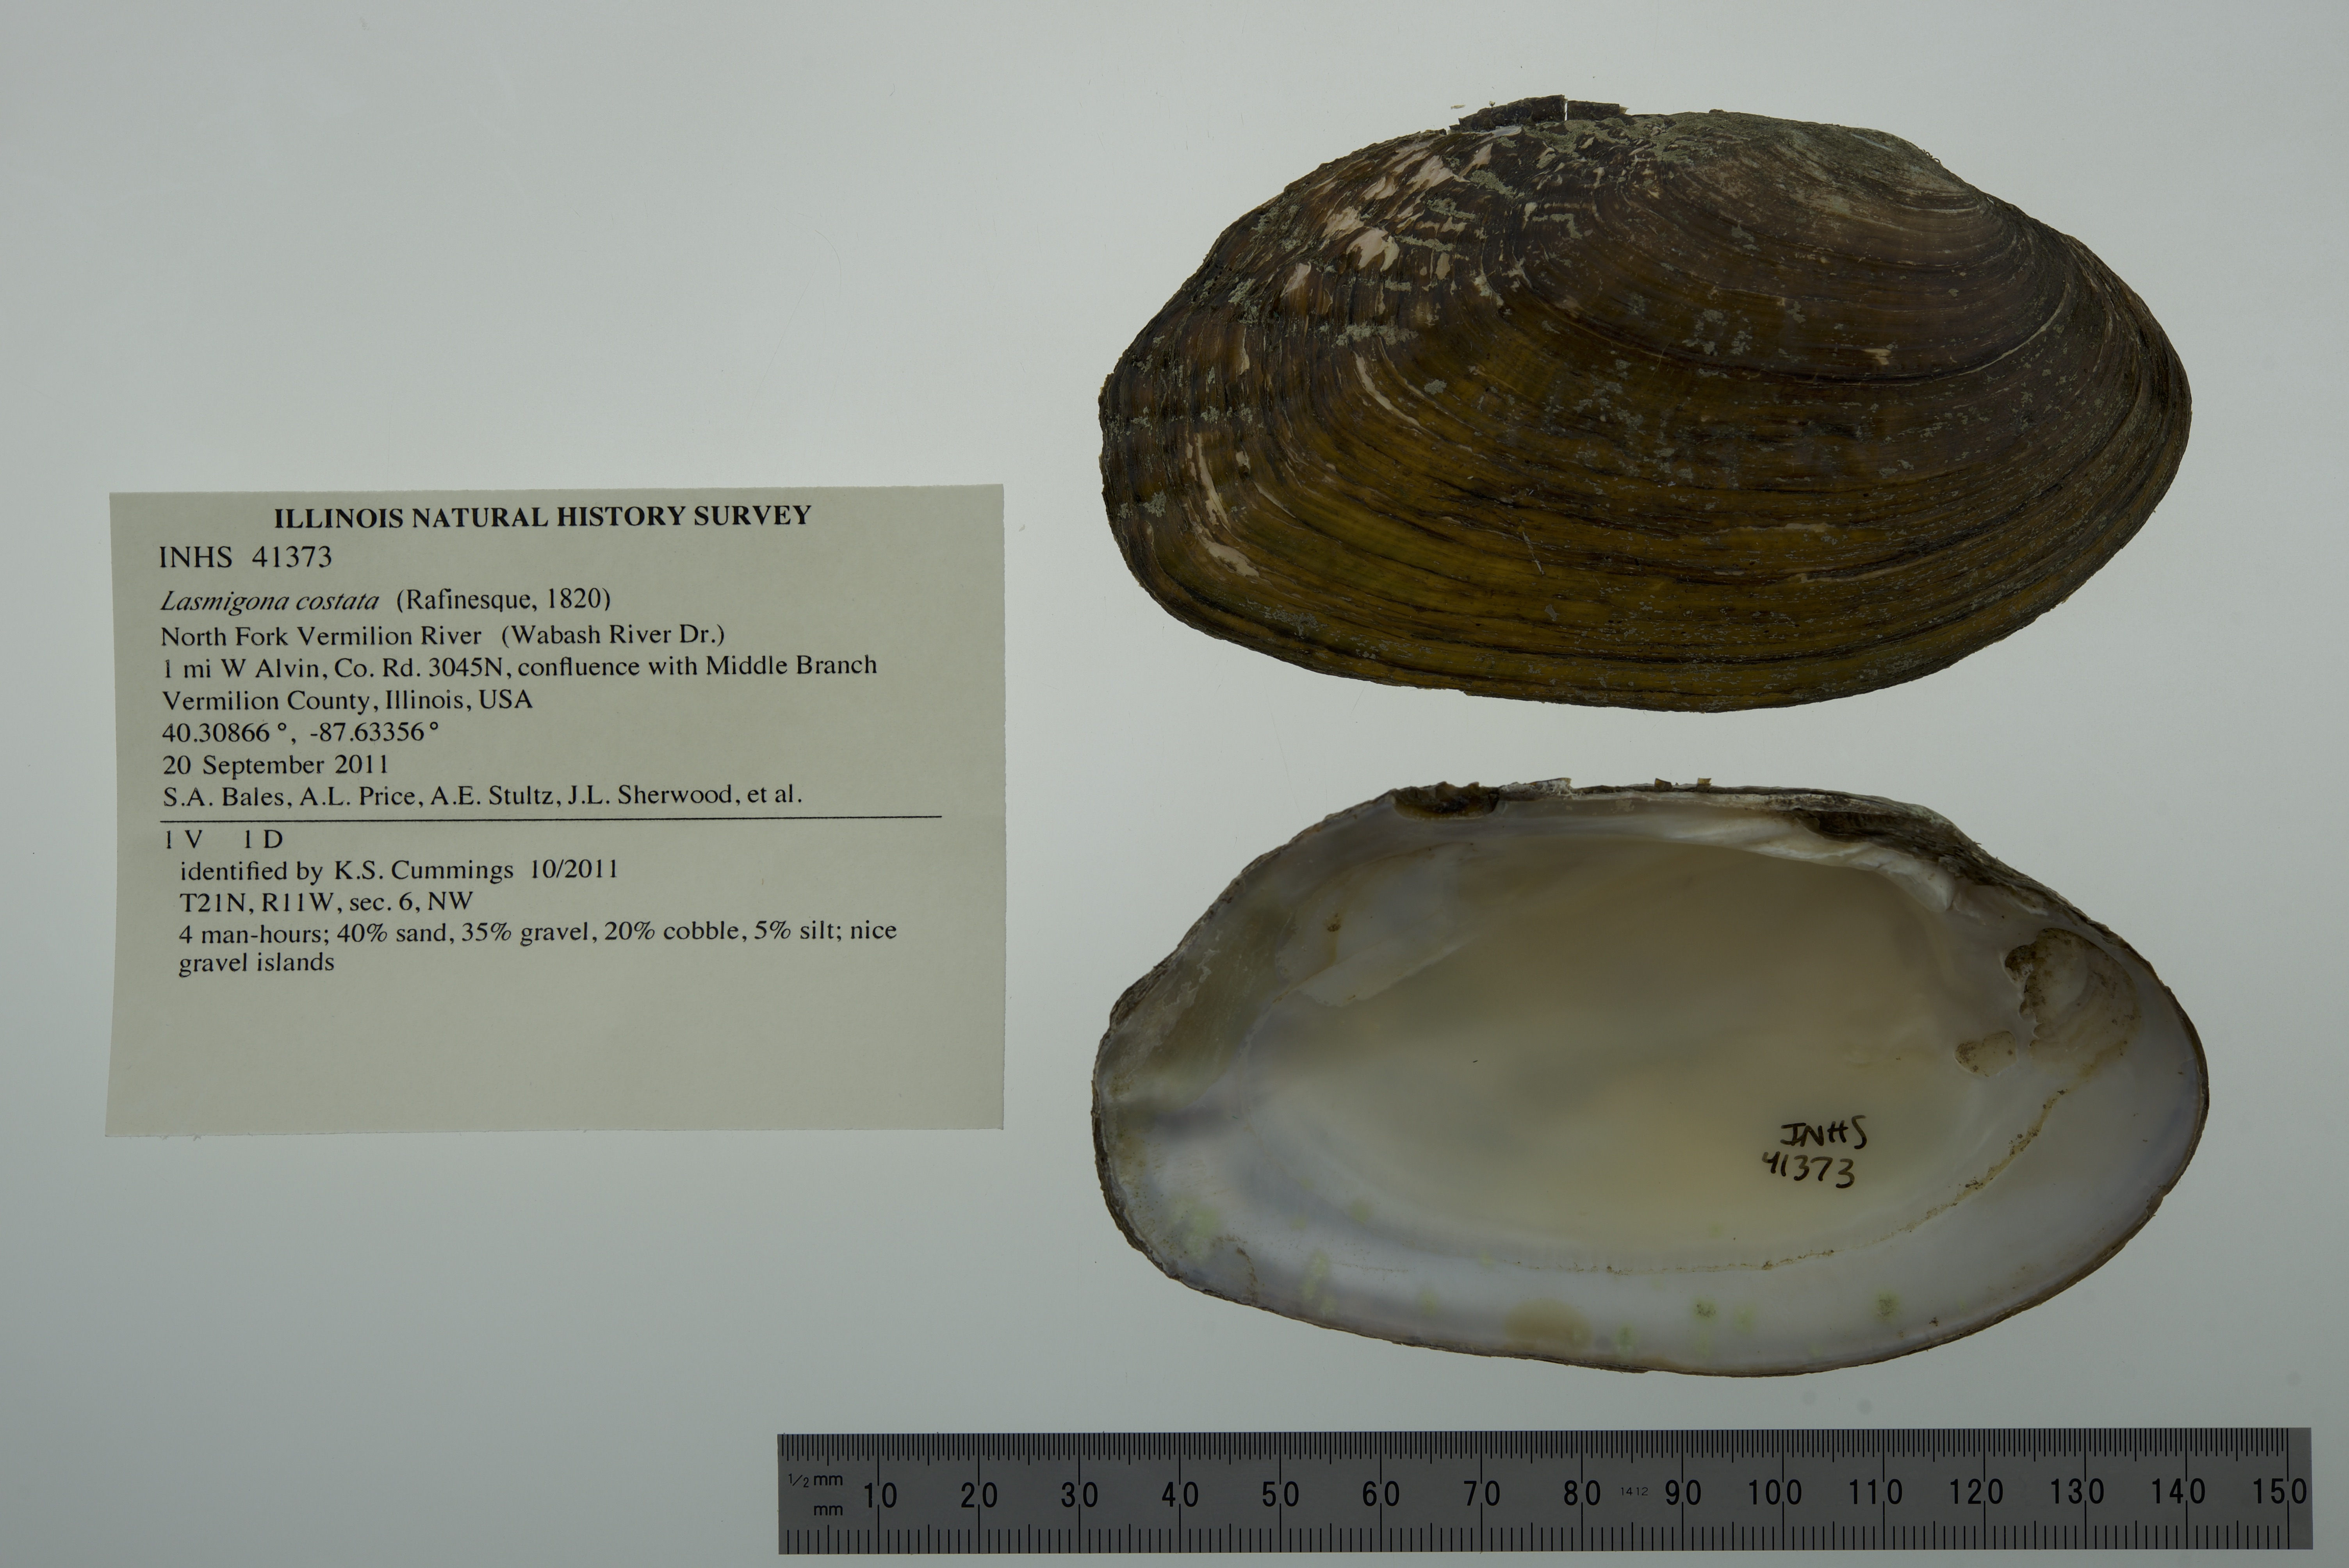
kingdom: Animalia
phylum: Mollusca
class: Bivalvia
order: Unionida
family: Unionidae
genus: Lasmigona
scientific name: Lasmigona costata
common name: Flutedshell
